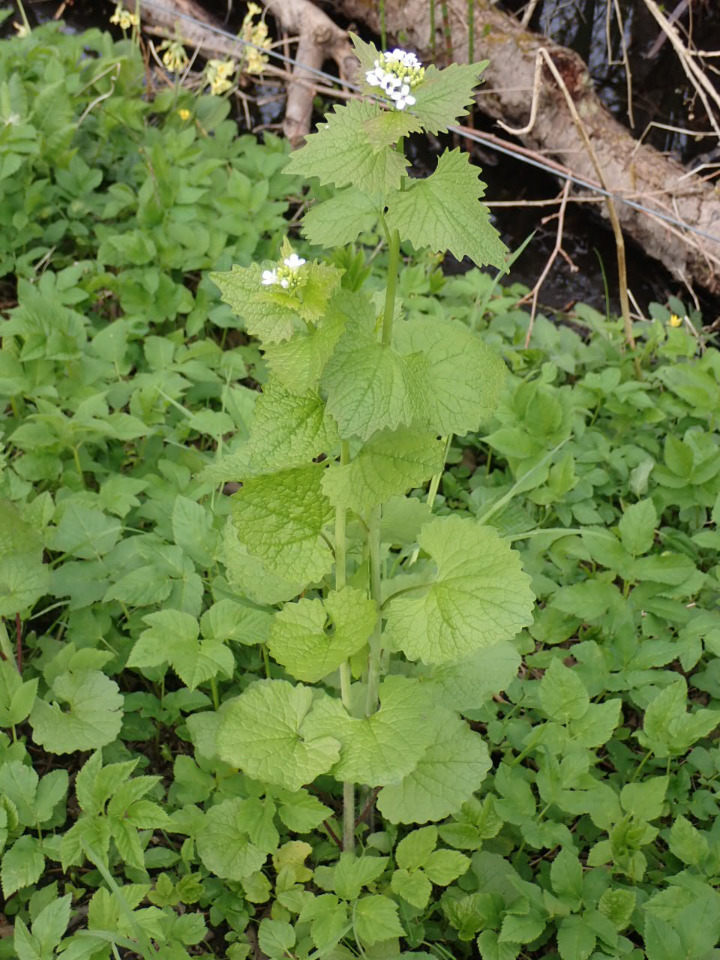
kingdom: Plantae
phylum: Tracheophyta
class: Magnoliopsida
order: Brassicales
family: Brassicaceae
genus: Alliaria
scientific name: Alliaria petiolata
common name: Løgkarse
